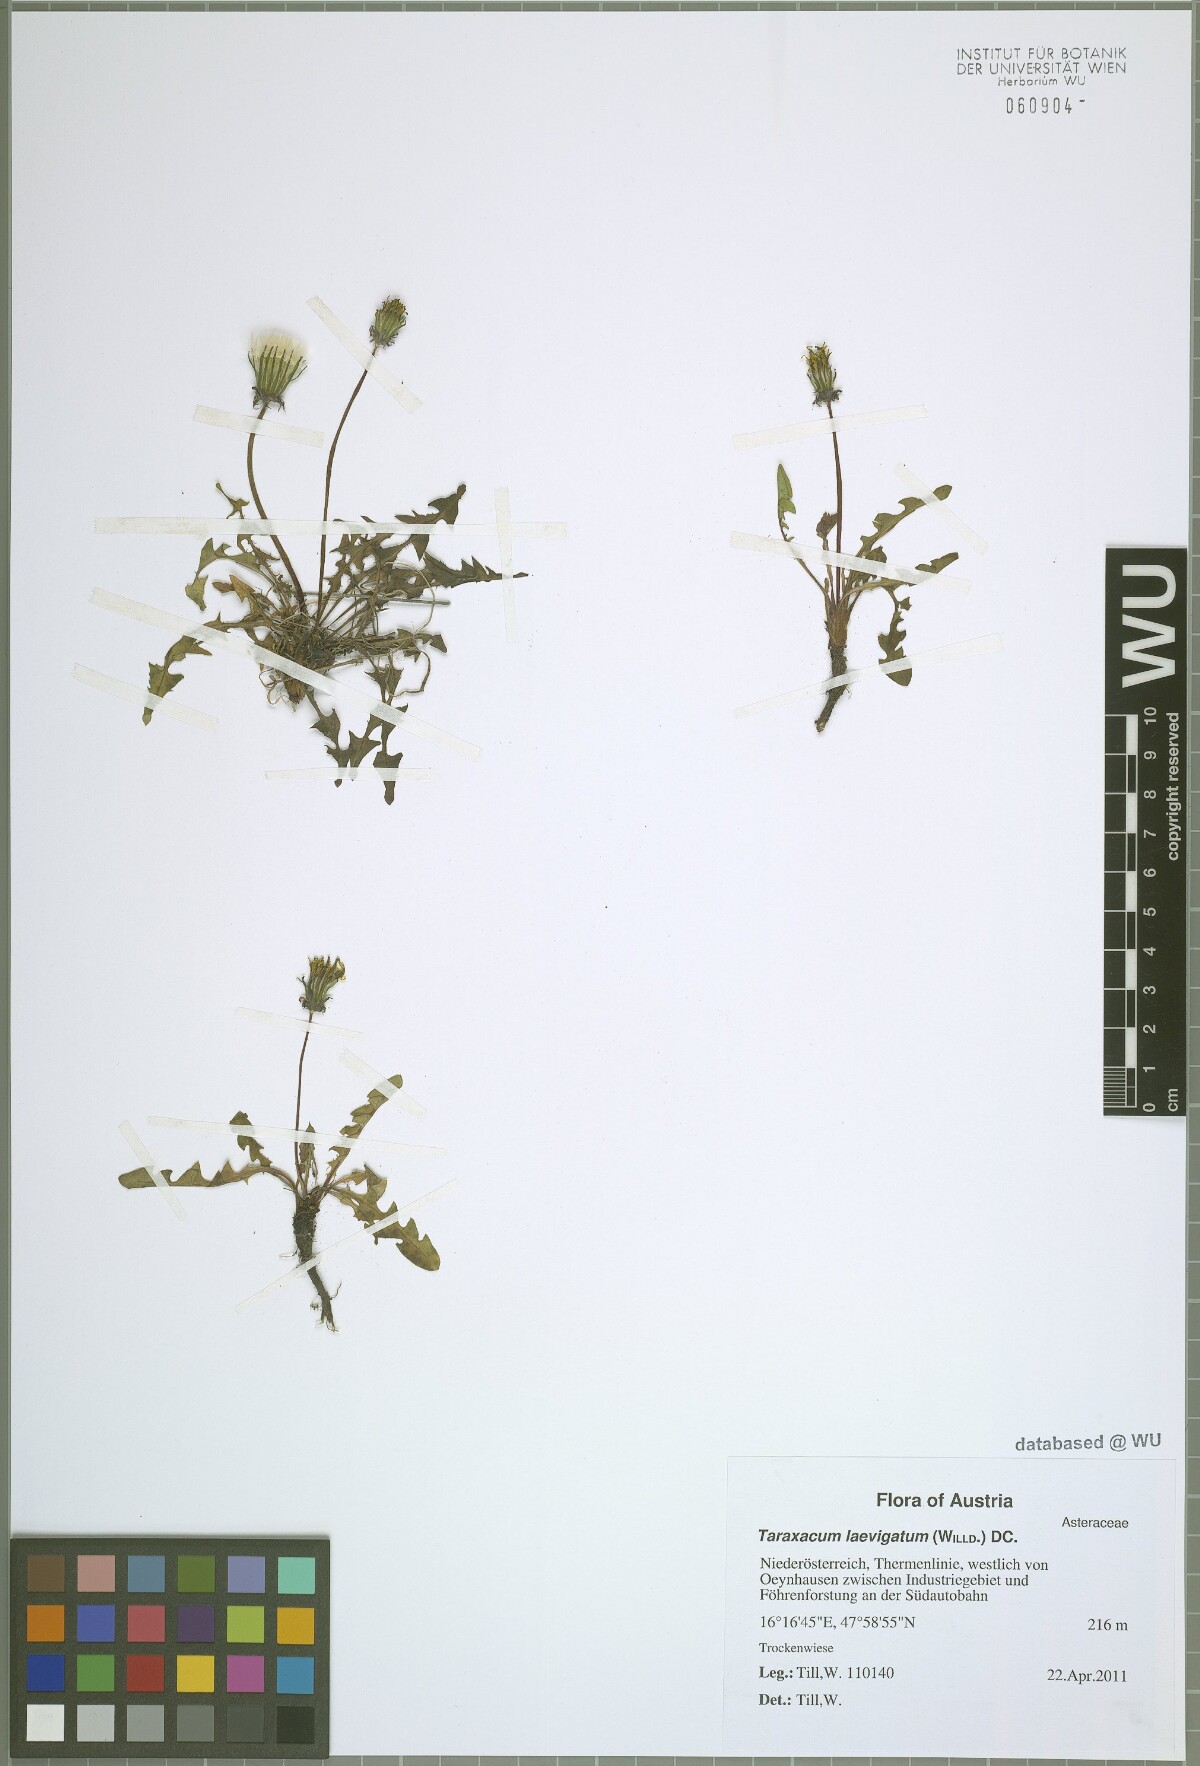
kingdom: Plantae
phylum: Tracheophyta
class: Magnoliopsida
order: Asterales
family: Asteraceae
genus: Taraxacum
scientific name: Taraxacum erythrospermum
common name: Rock dandelion
